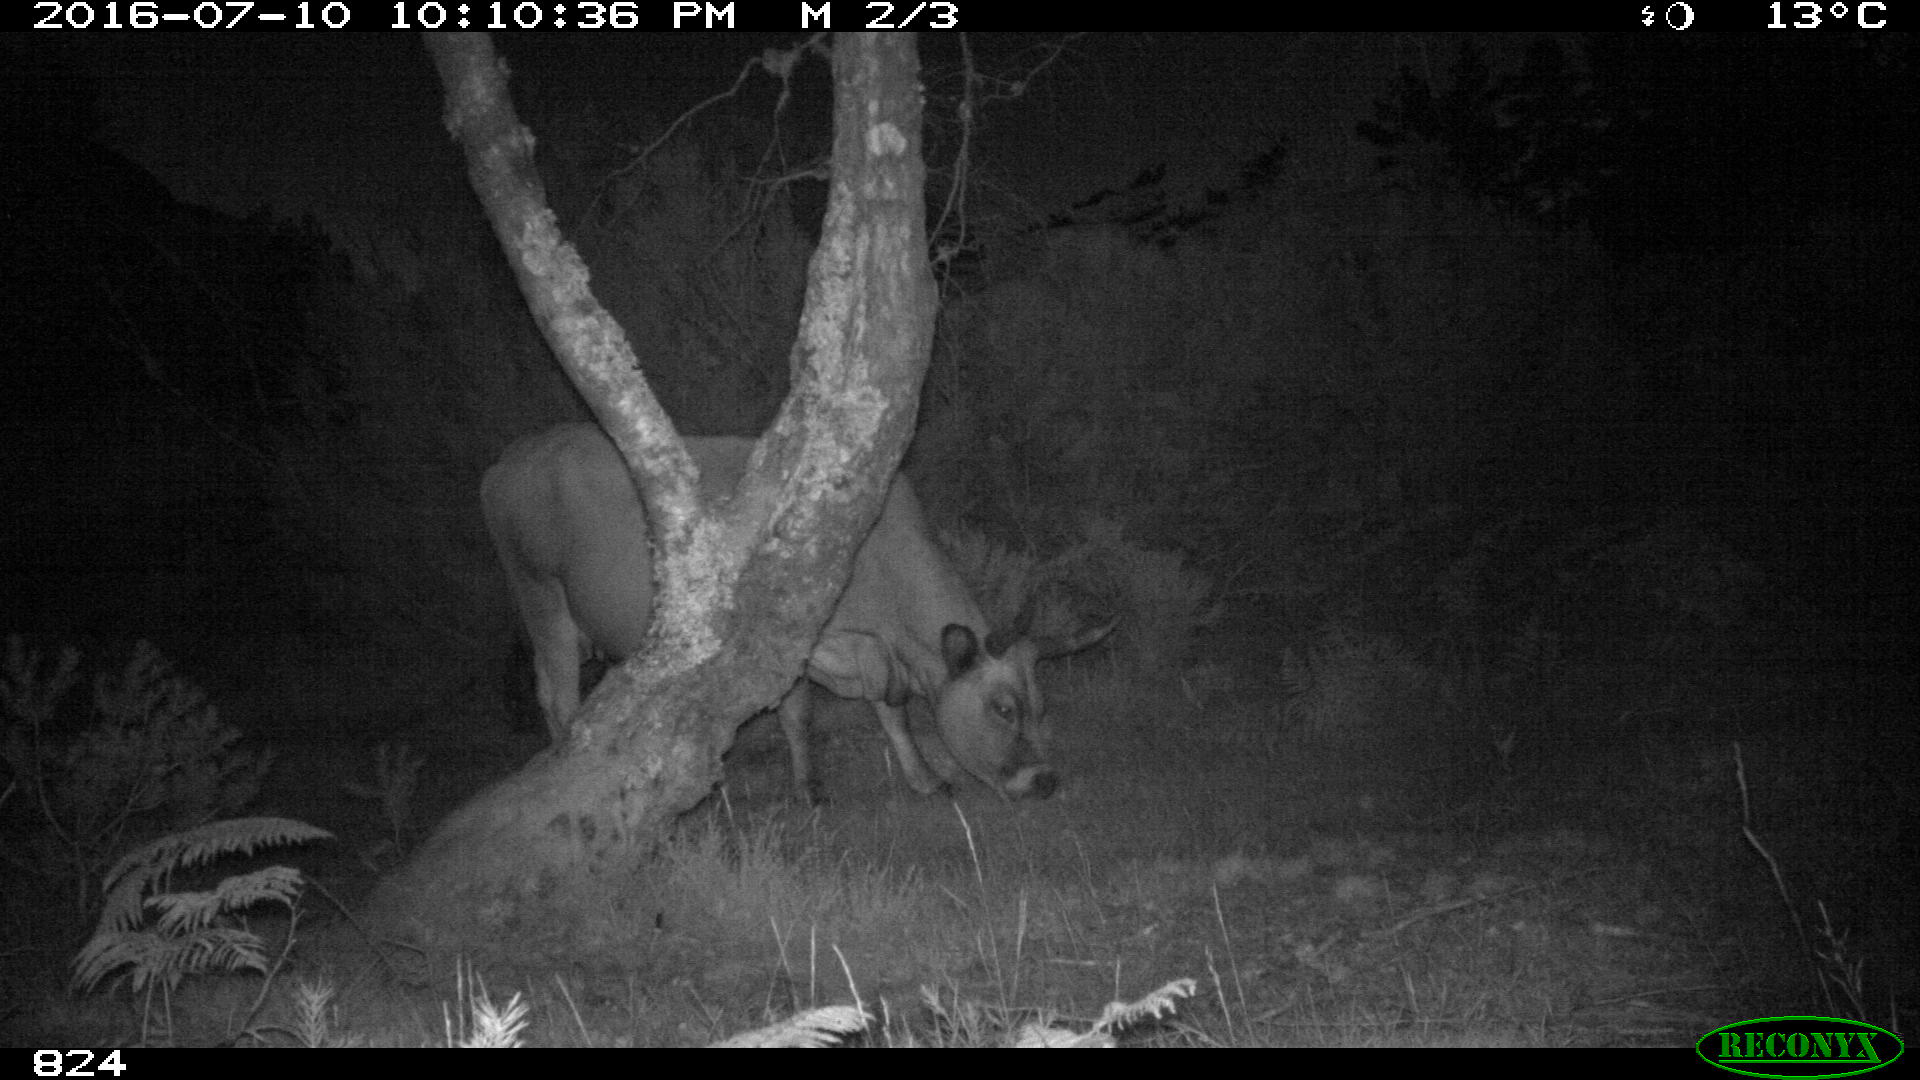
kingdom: Animalia
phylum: Chordata
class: Mammalia
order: Artiodactyla
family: Bovidae
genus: Bos
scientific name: Bos taurus
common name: Domesticated cattle
